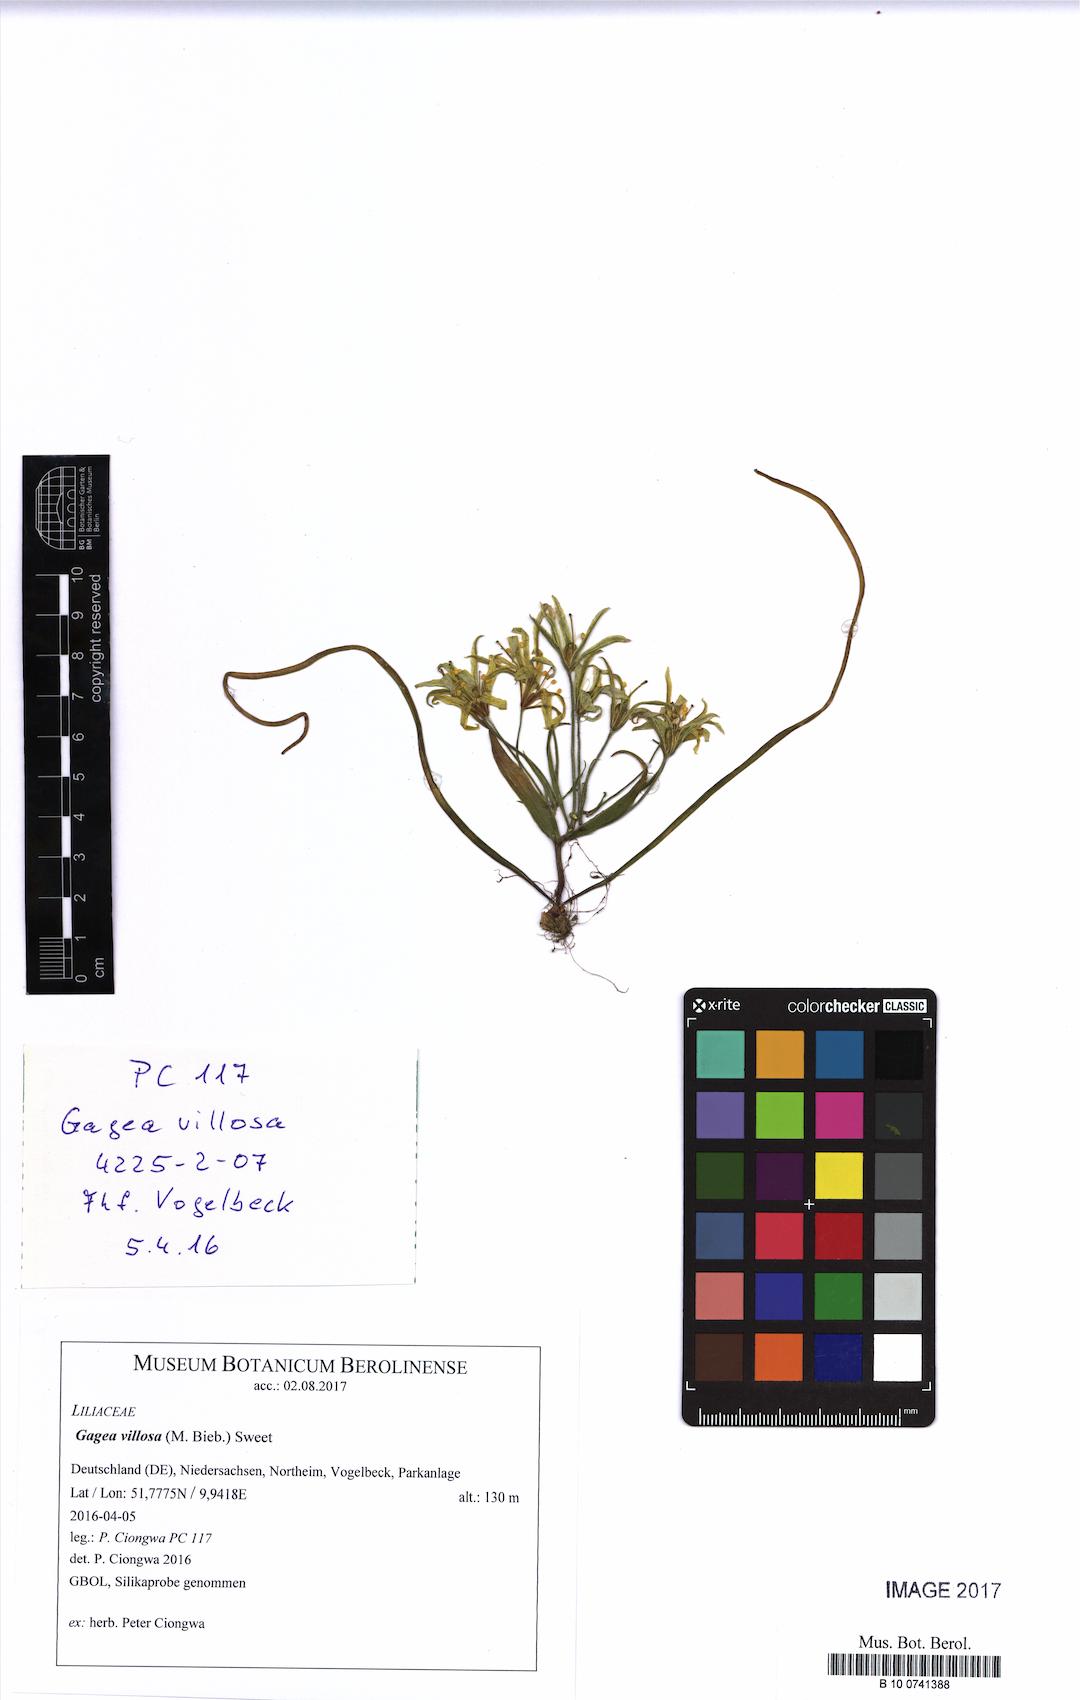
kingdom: Plantae
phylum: Tracheophyta
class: Liliopsida
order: Liliales
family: Liliaceae
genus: Gagea
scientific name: Gagea villosa
